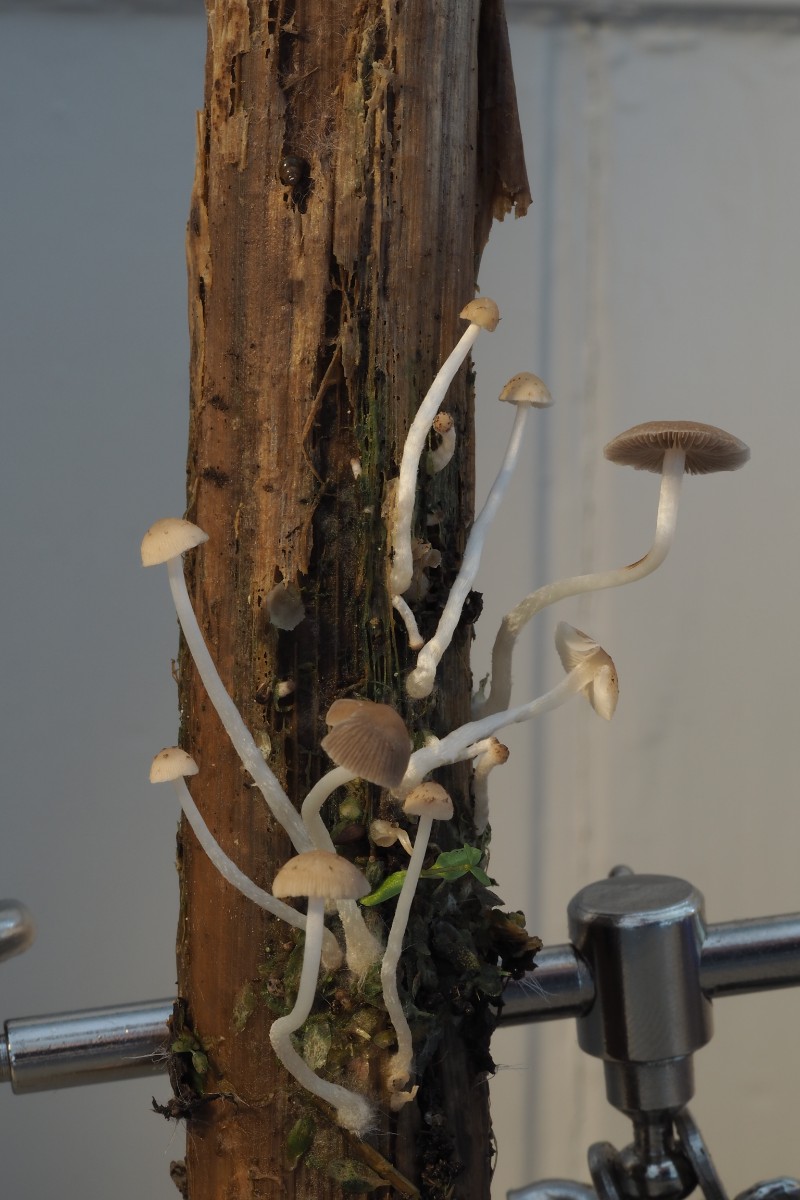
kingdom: Fungi
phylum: Basidiomycota
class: Agaricomycetes
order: Agaricales
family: Psathyrellaceae
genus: Candolleomyces
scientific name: Candolleomyces typhae
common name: dunhammer-mørkhat
